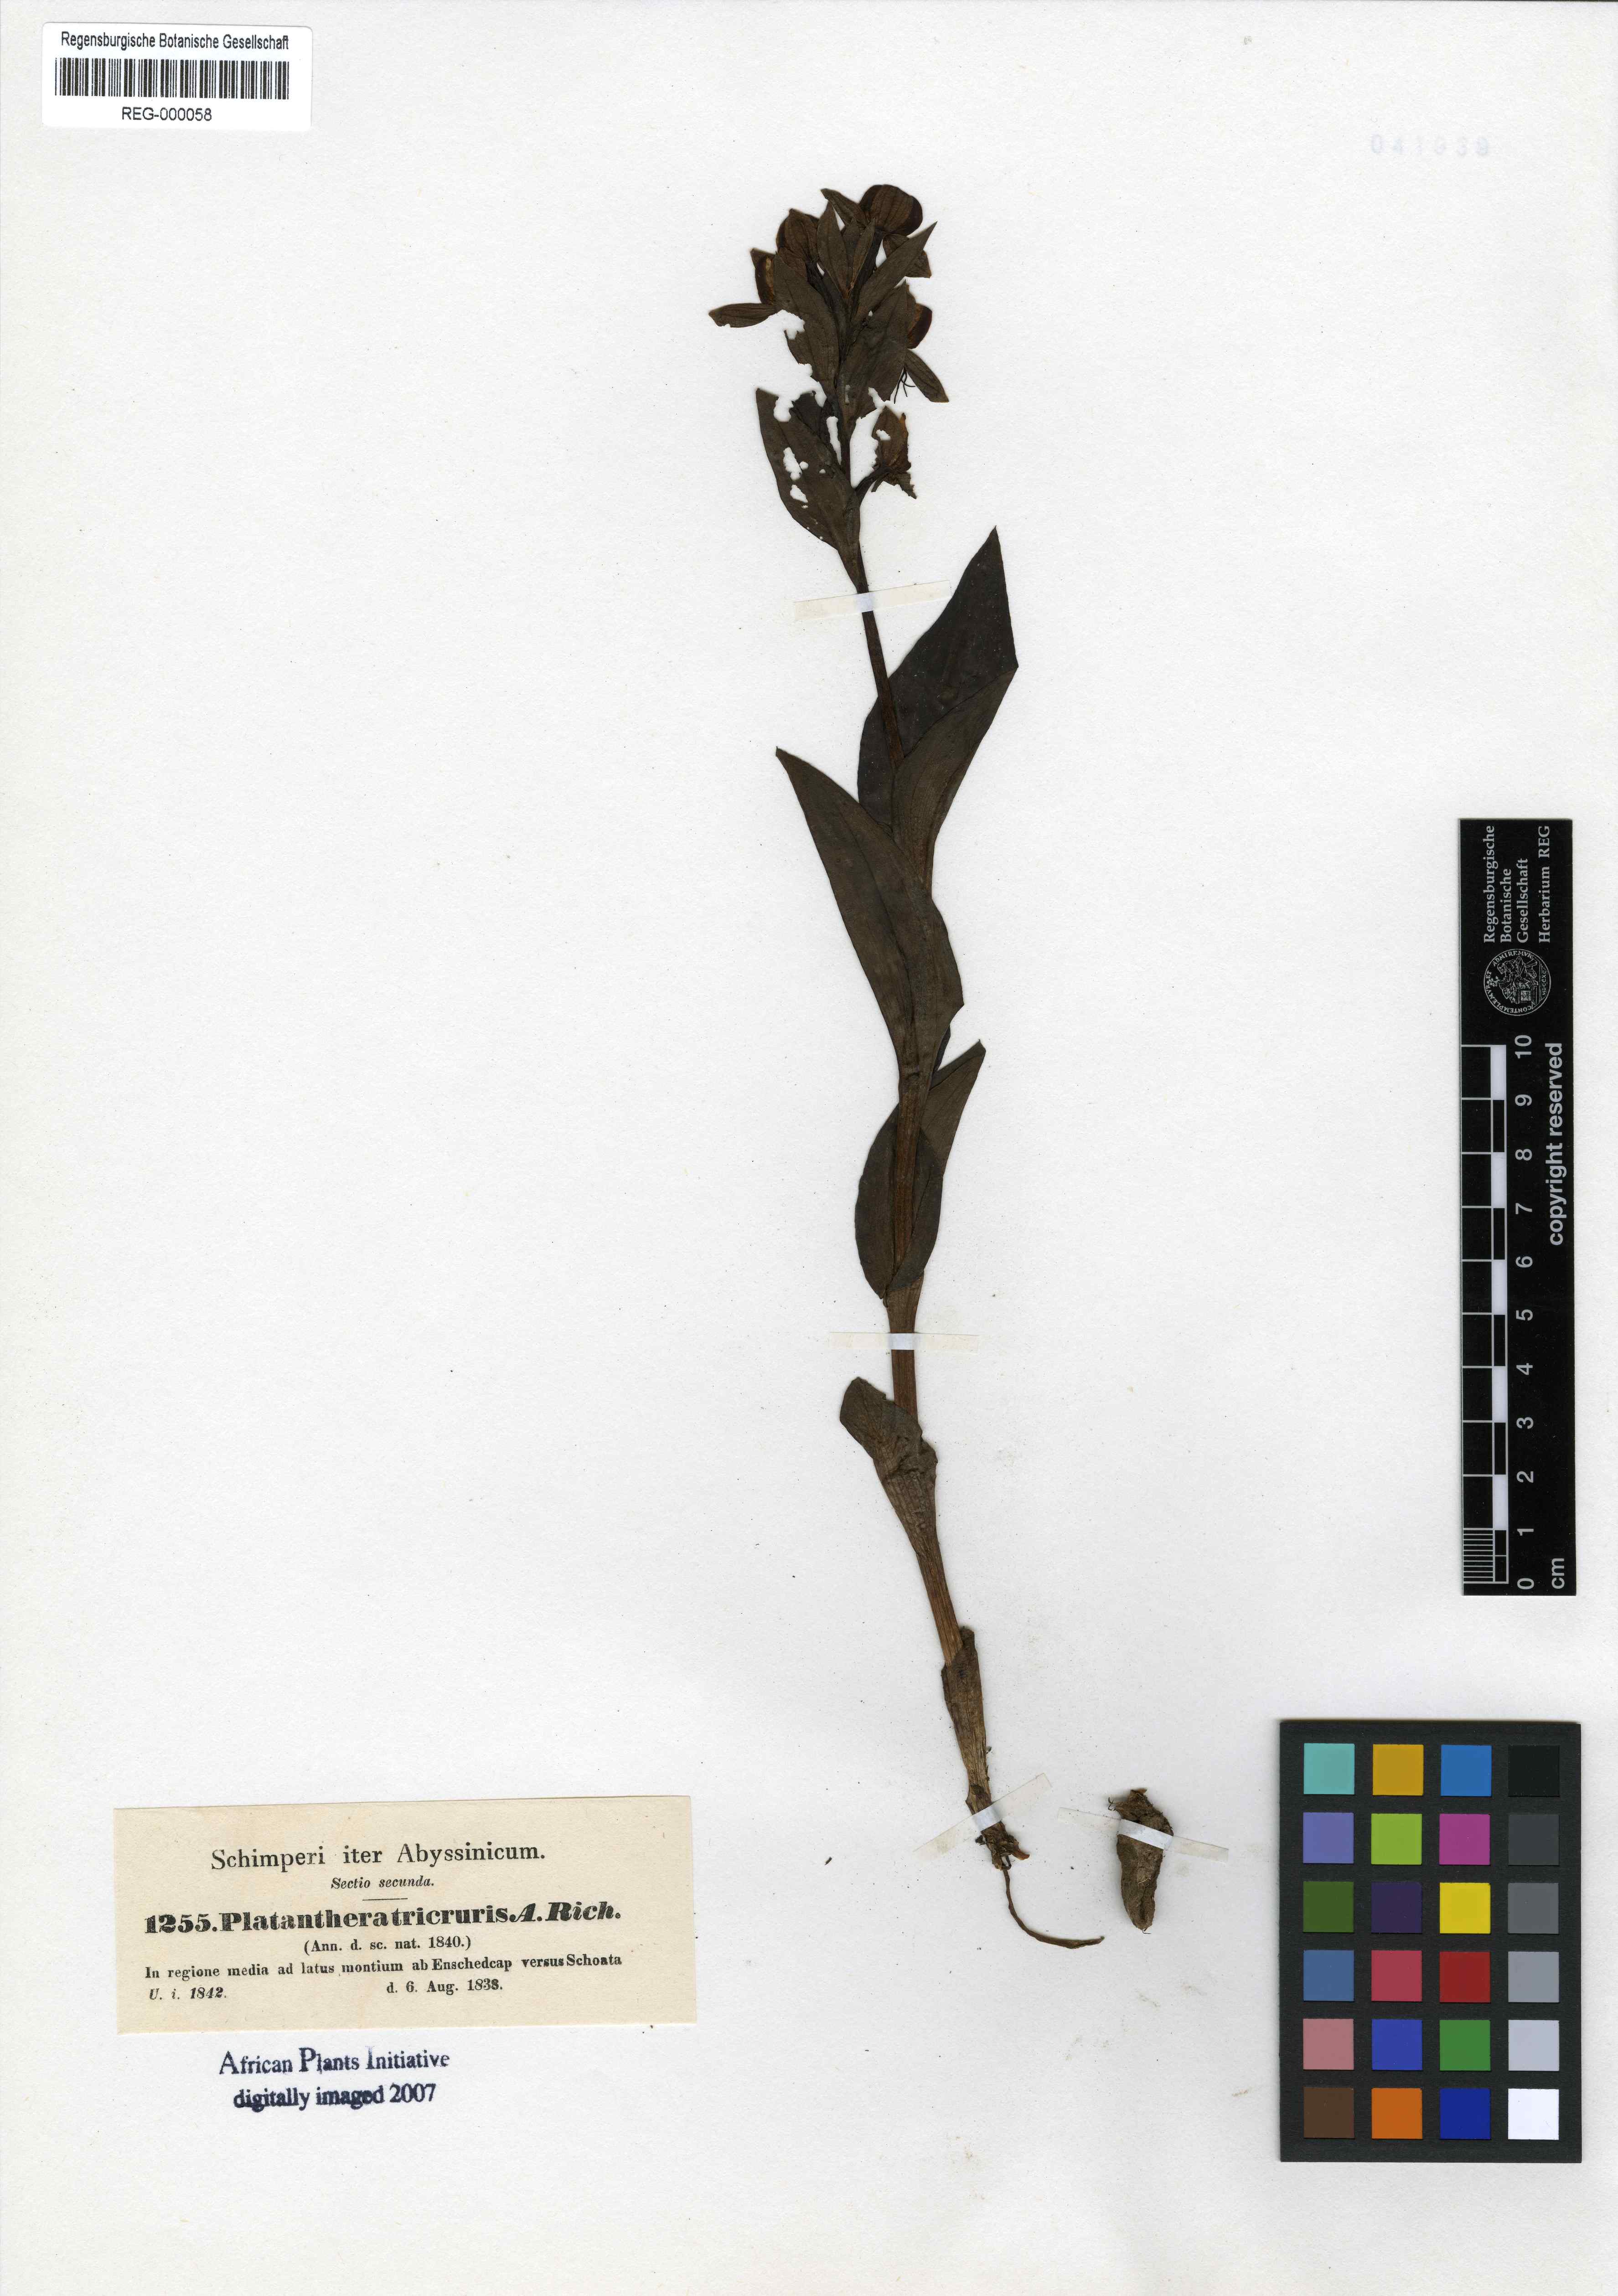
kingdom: Plantae
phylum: Tracheophyta
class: Liliopsida
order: Asparagales
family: Orchidaceae
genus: Habenaria
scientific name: Habenaria tricruris
